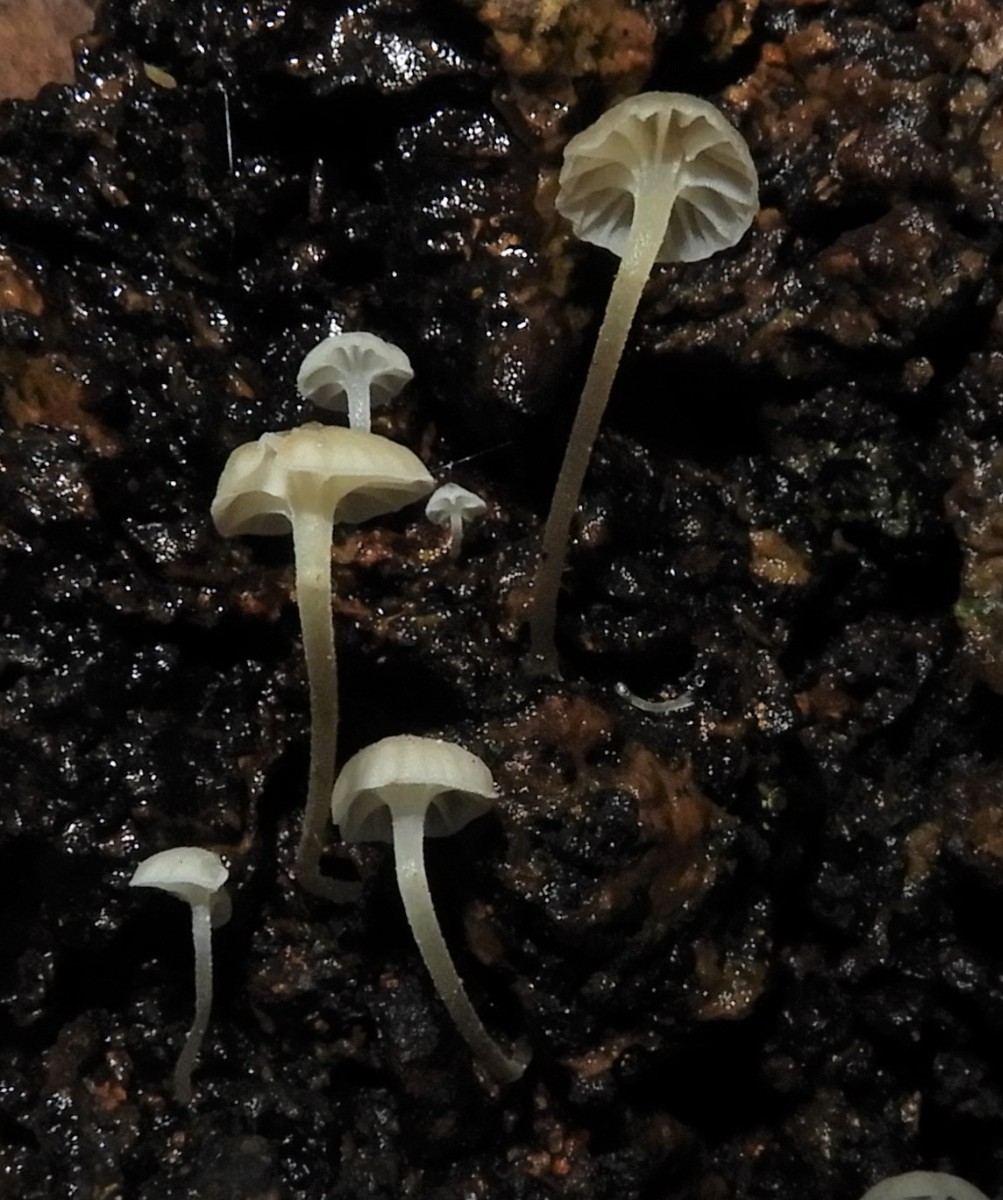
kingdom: Fungi
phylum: Basidiomycota
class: Agaricomycetes
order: Agaricales
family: Porotheleaceae
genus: Phloeomana
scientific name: Phloeomana speirea
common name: kvist-huesvamp
